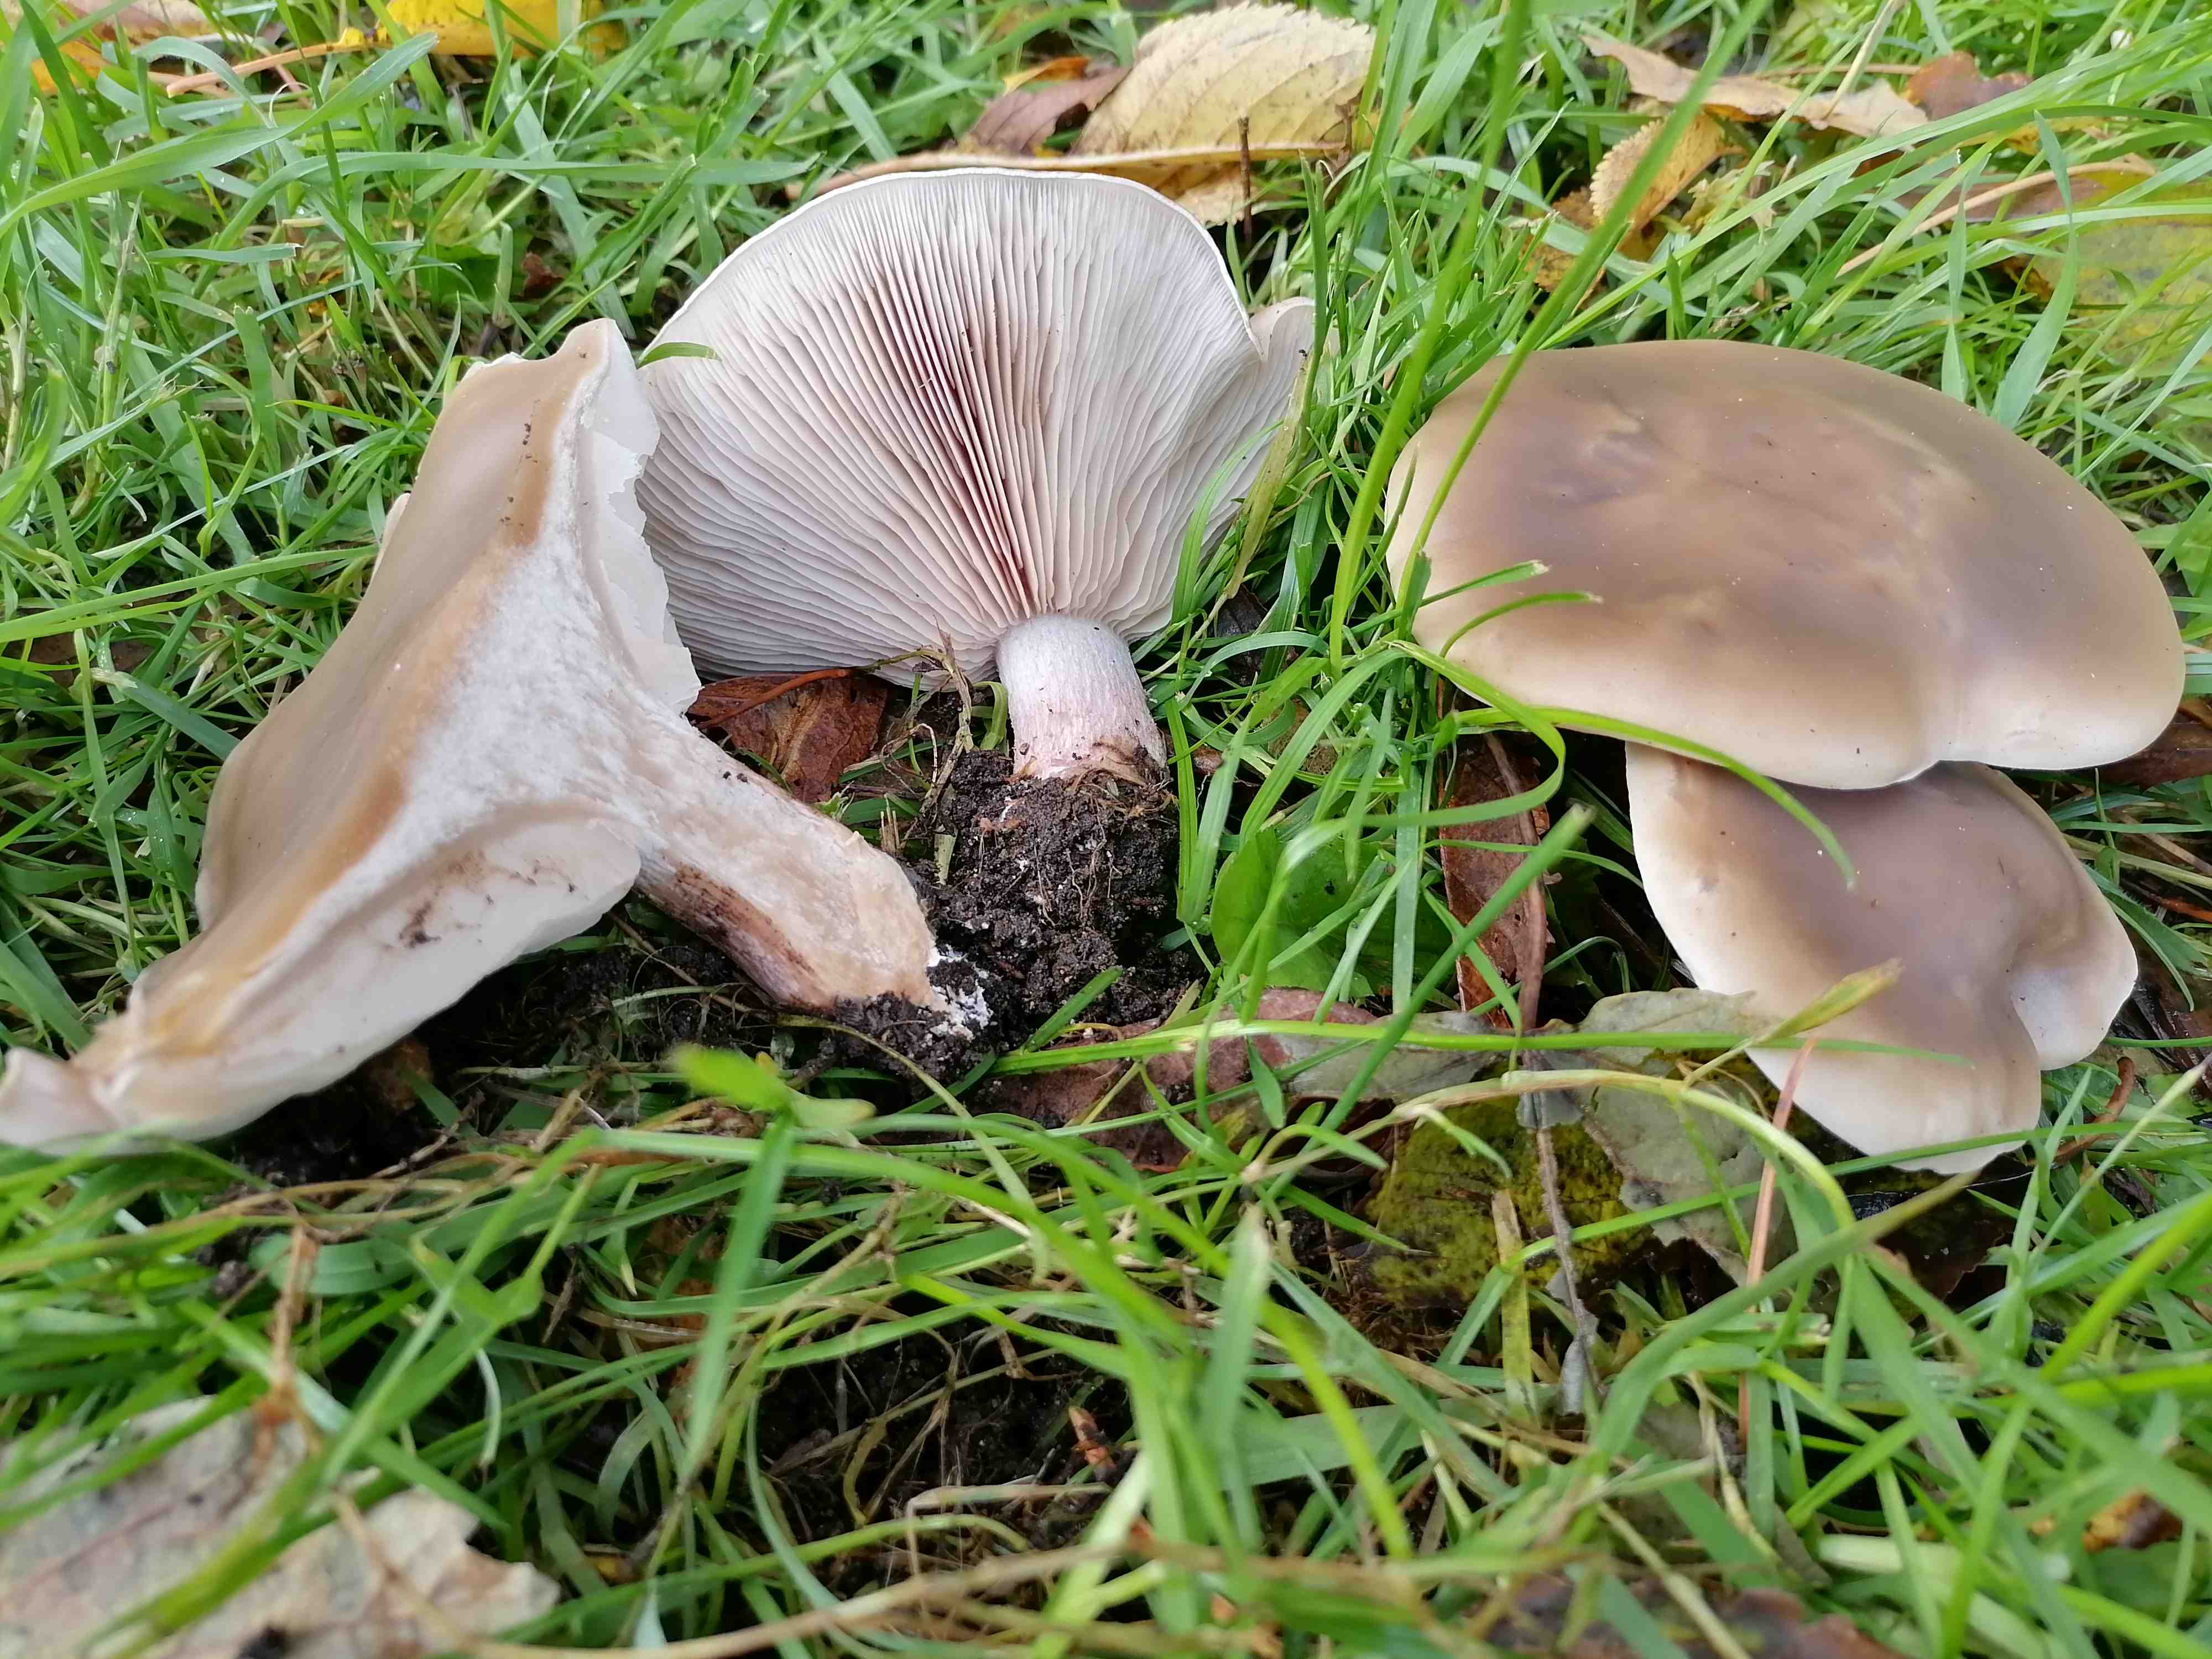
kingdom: Fungi
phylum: Basidiomycota
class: Agaricomycetes
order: Agaricales
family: Tricholomataceae
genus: Lepista
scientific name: Lepista personata
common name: bleg hekseringshat
